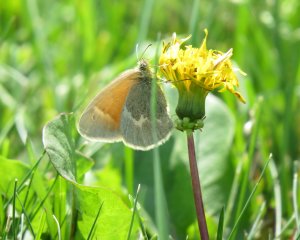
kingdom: Animalia
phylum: Arthropoda
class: Insecta
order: Lepidoptera
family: Nymphalidae
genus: Coenonympha
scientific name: Coenonympha tullia
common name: Large Heath
